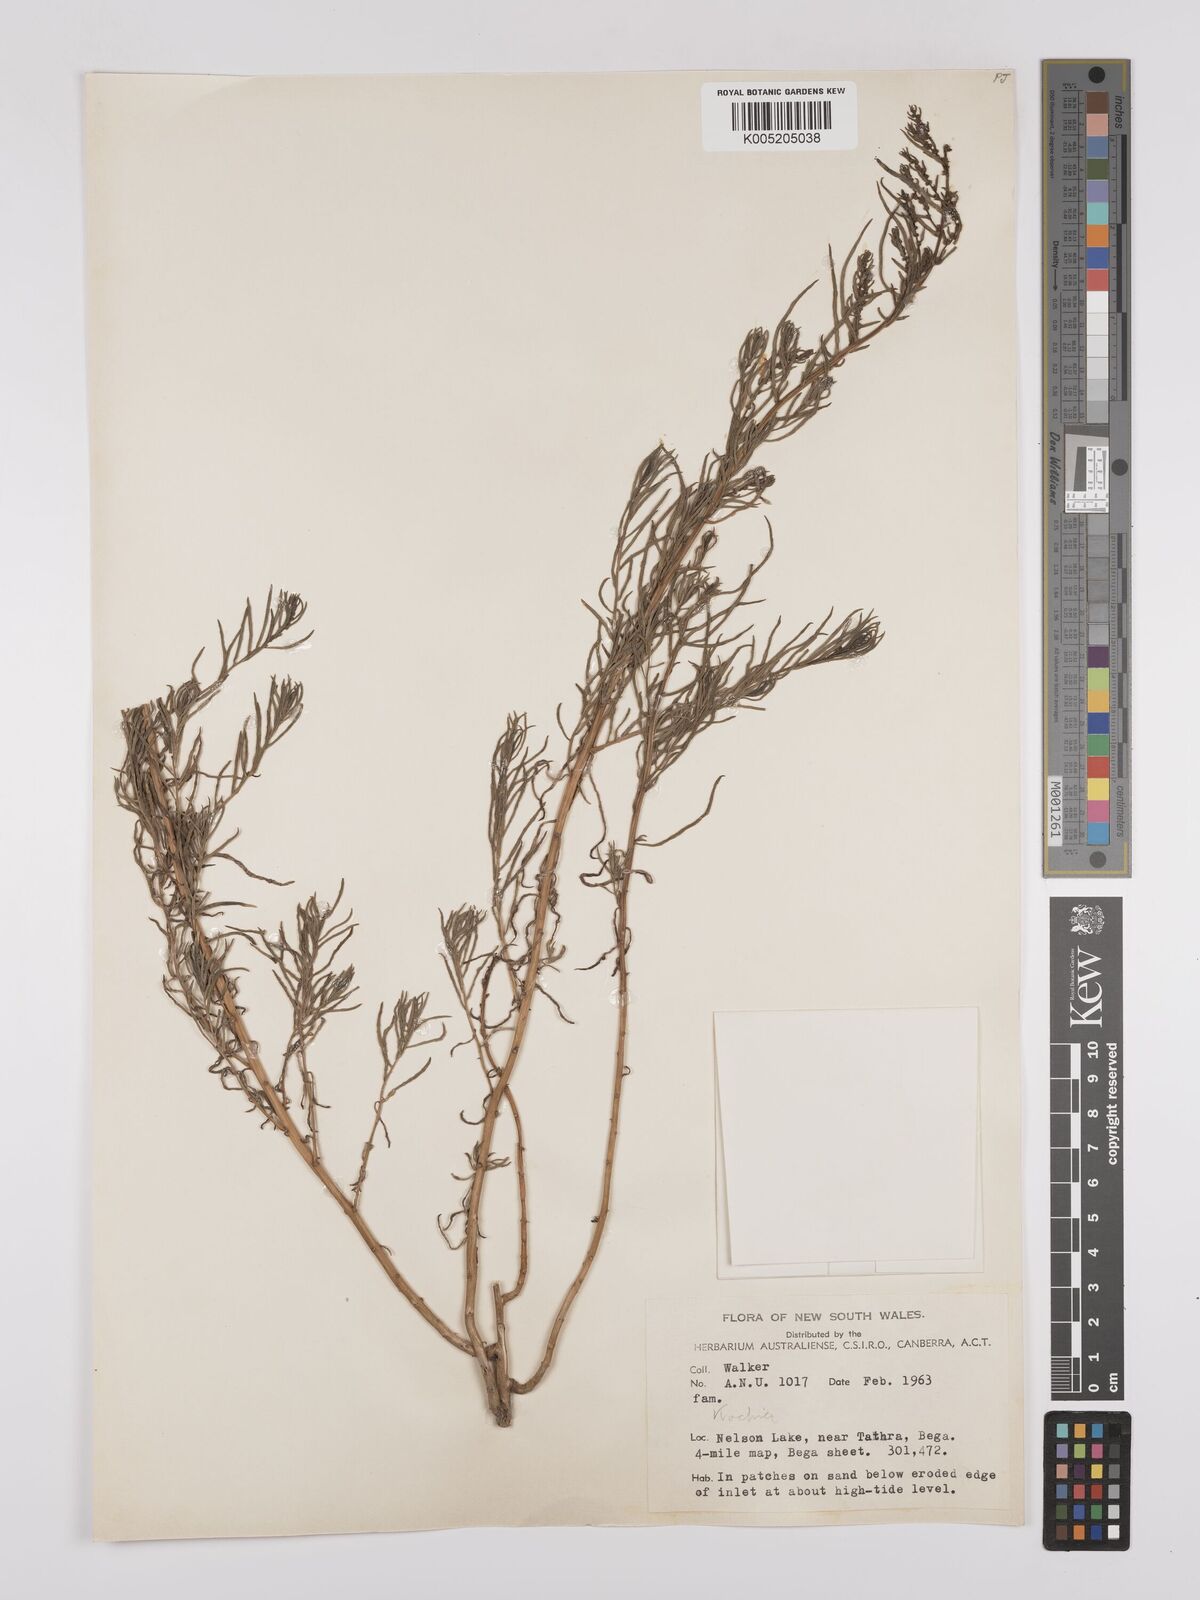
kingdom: Plantae
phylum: Tracheophyta
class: Magnoliopsida
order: Caryophyllales
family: Amaranthaceae
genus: Suaeda
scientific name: Suaeda australis
